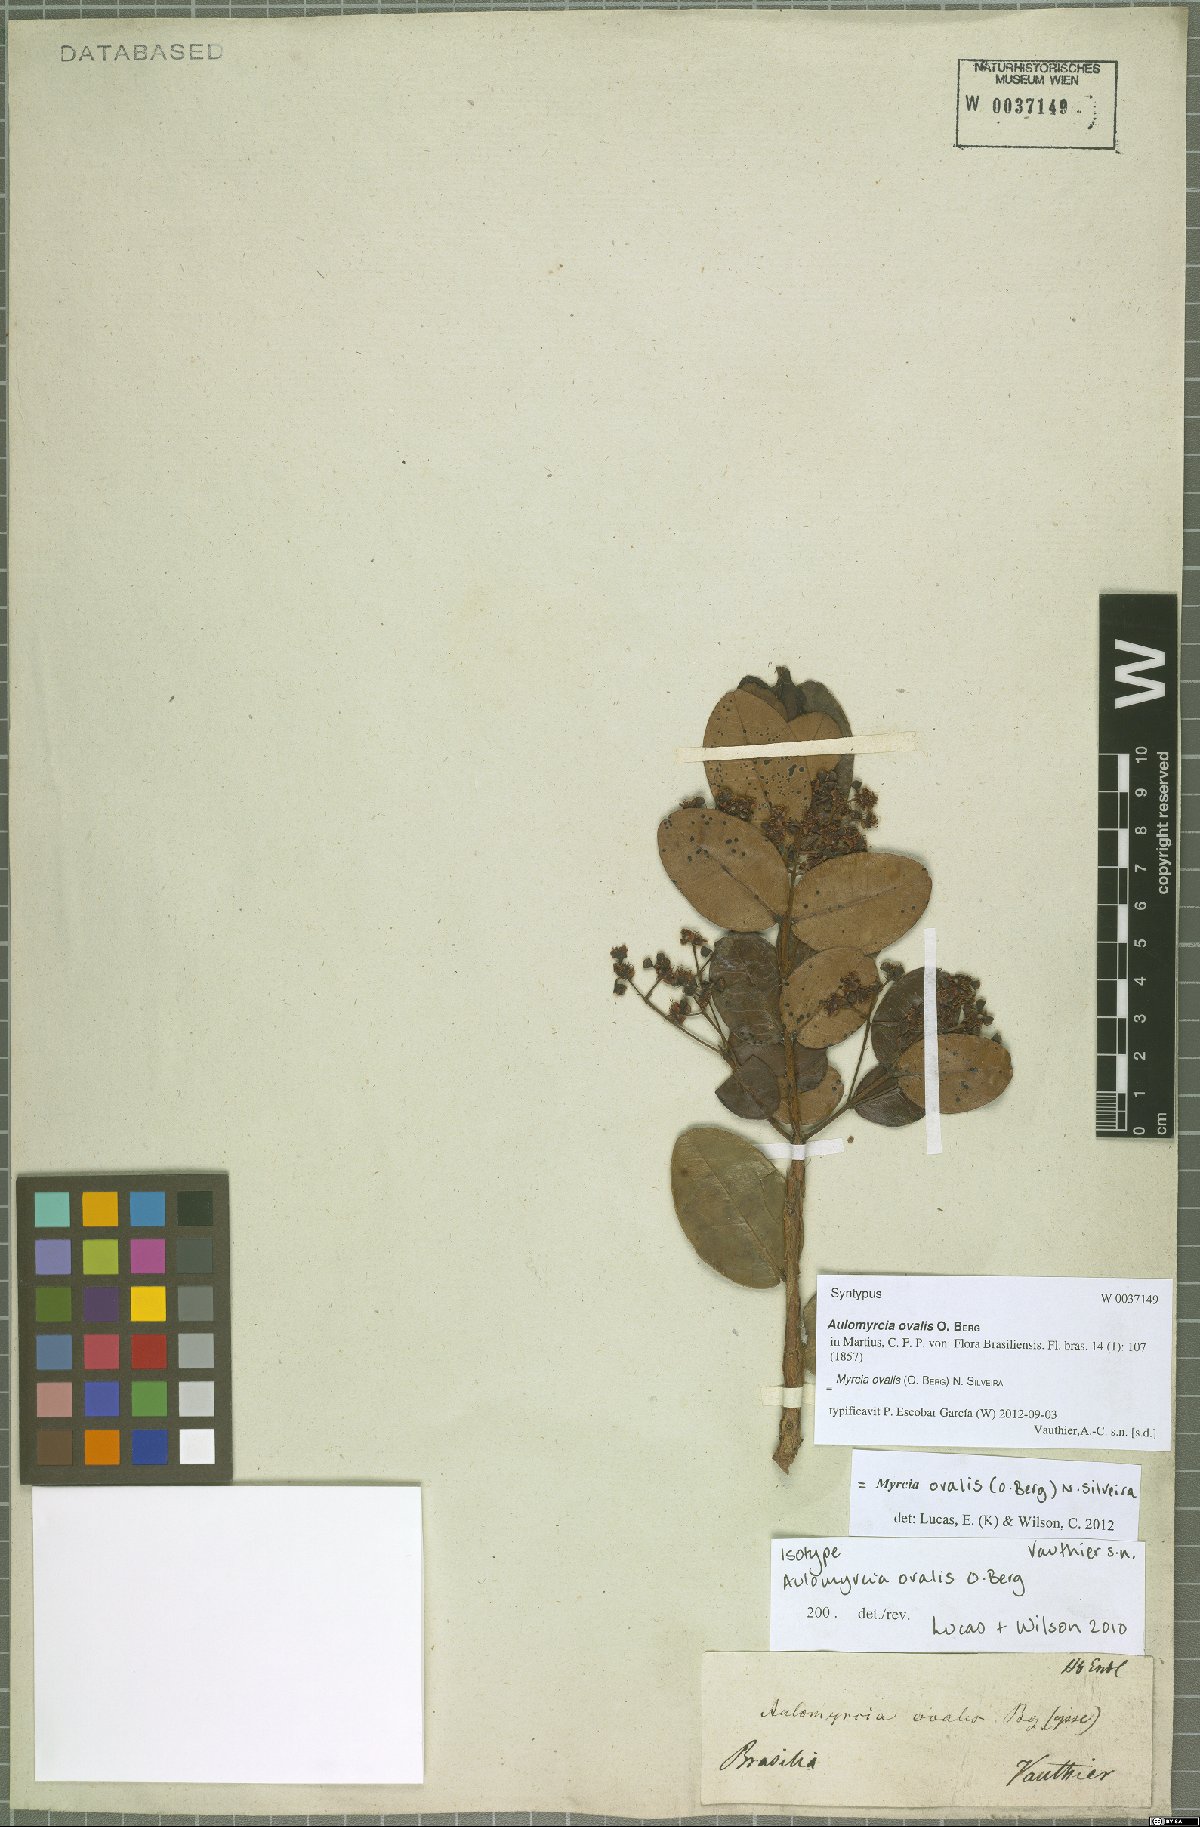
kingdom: Plantae
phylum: Tracheophyta
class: Magnoliopsida
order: Myrtales
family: Myrtaceae
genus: Myrcia
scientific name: Myrcia ovalis
